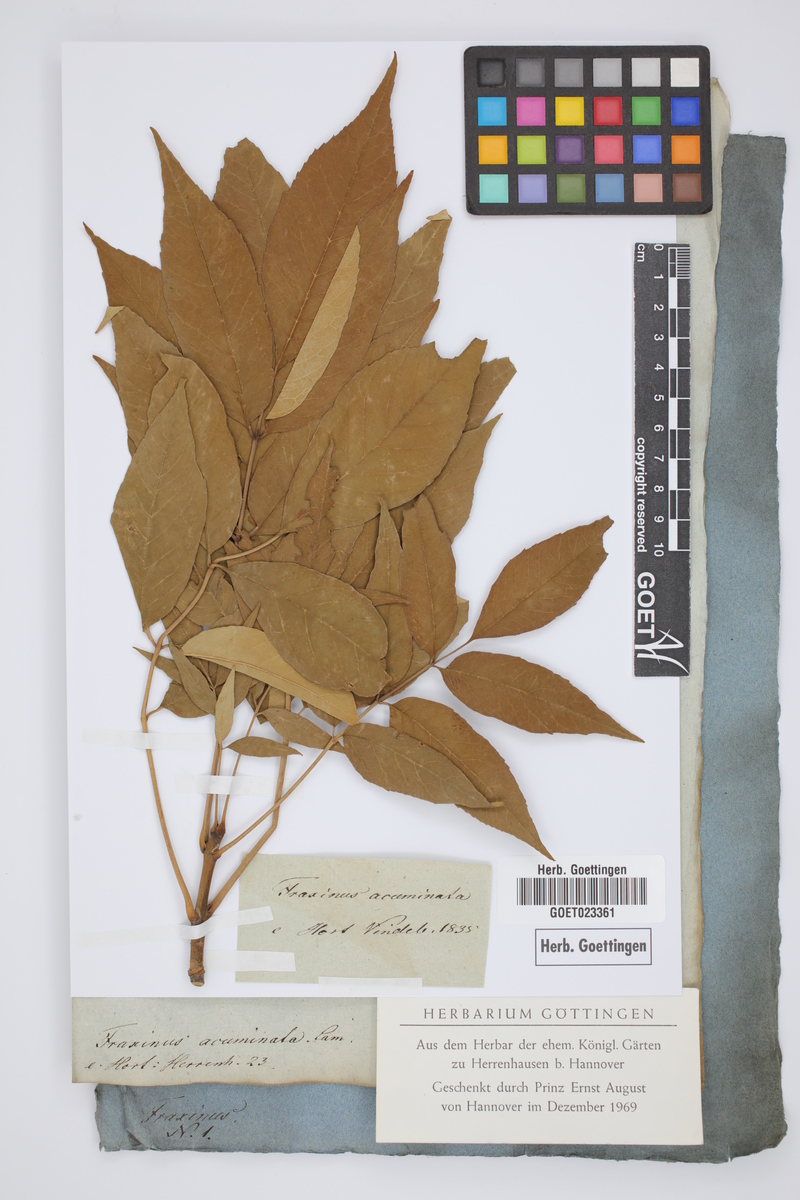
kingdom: Plantae
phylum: Tracheophyta
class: Magnoliopsida
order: Lamiales
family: Oleaceae
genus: Fraxinus
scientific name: Fraxinus americana
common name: White ash
